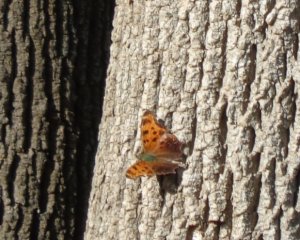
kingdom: Animalia
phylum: Arthropoda
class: Insecta
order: Lepidoptera
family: Nymphalidae
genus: Polygonia
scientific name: Polygonia comma
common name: Eastern Comma
